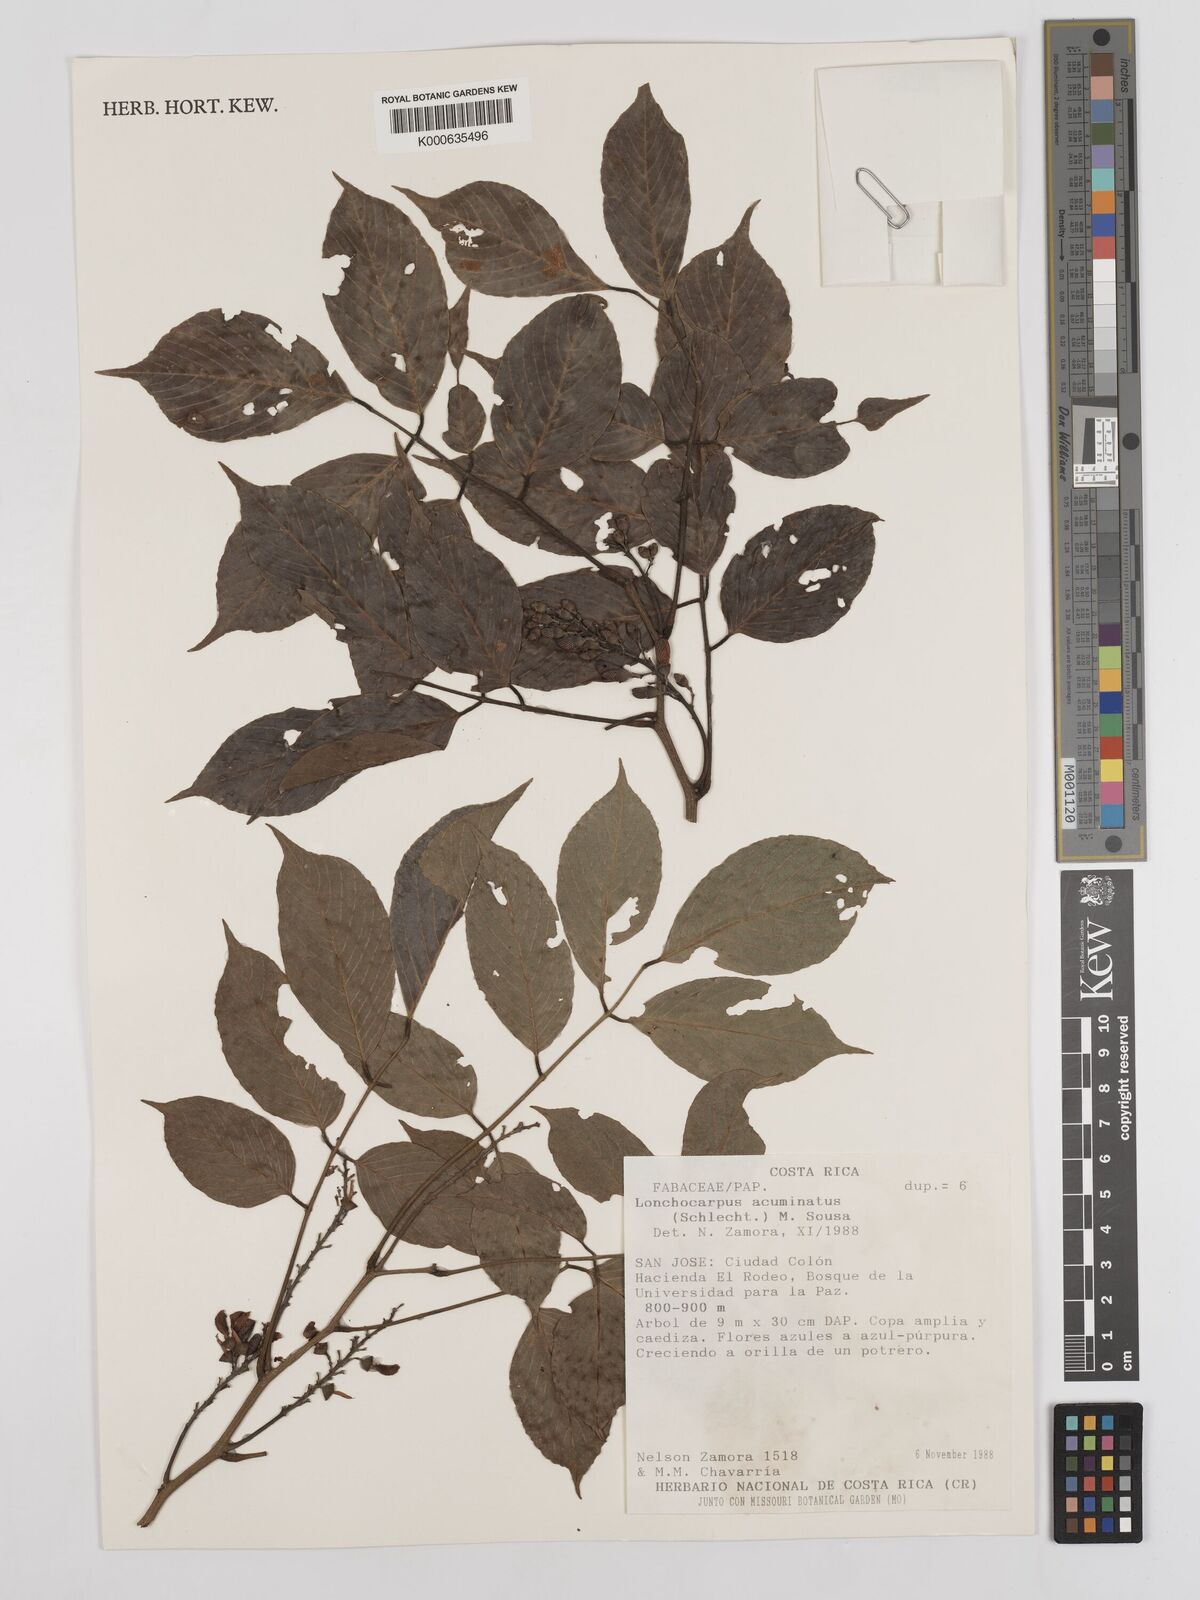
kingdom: Plantae
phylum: Tracheophyta
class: Magnoliopsida
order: Fabales
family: Fabaceae
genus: Lonchocarpus
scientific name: Lonchocarpus acuminatus
